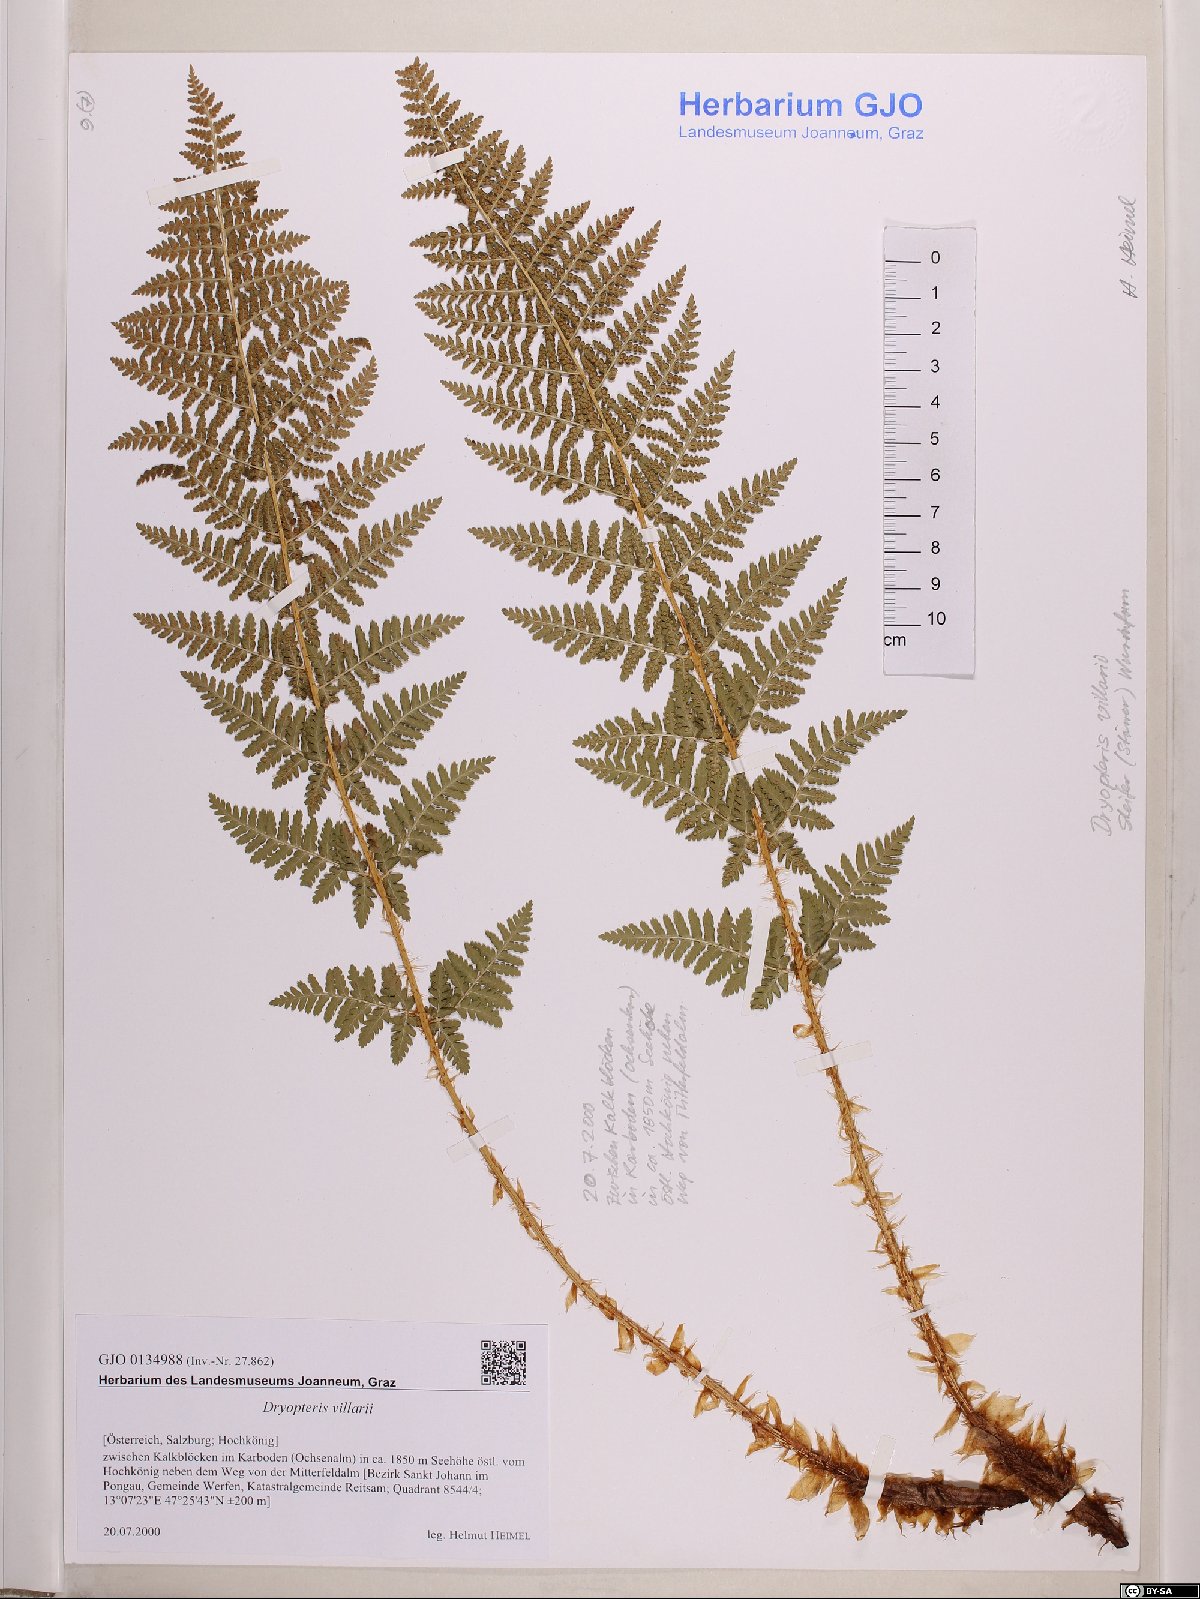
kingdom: Plantae
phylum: Tracheophyta
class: Polypodiopsida
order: Polypodiales
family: Dryopteridaceae
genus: Dryopteris
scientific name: Dryopteris villarii
